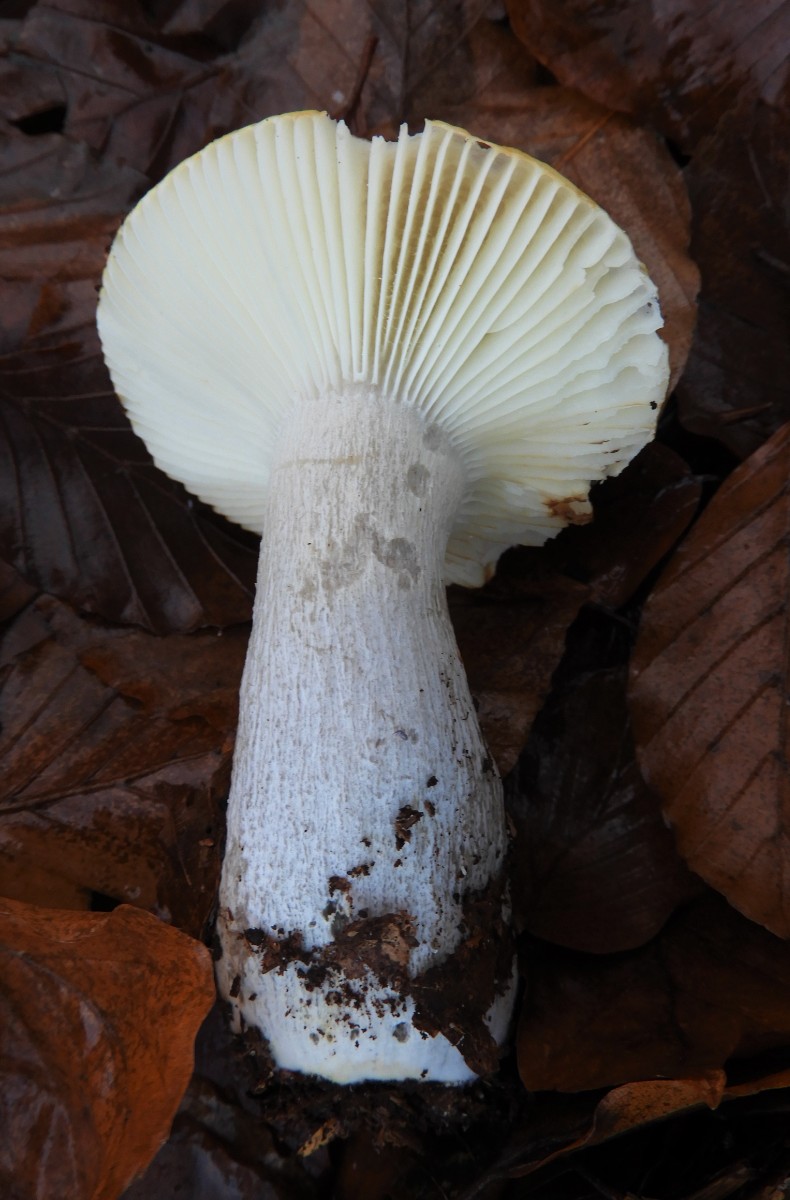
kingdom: Fungi
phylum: Basidiomycota
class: Agaricomycetes
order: Russulales
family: Russulaceae
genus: Russula
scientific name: Russula ochroleuca
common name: okkergul skørhat
